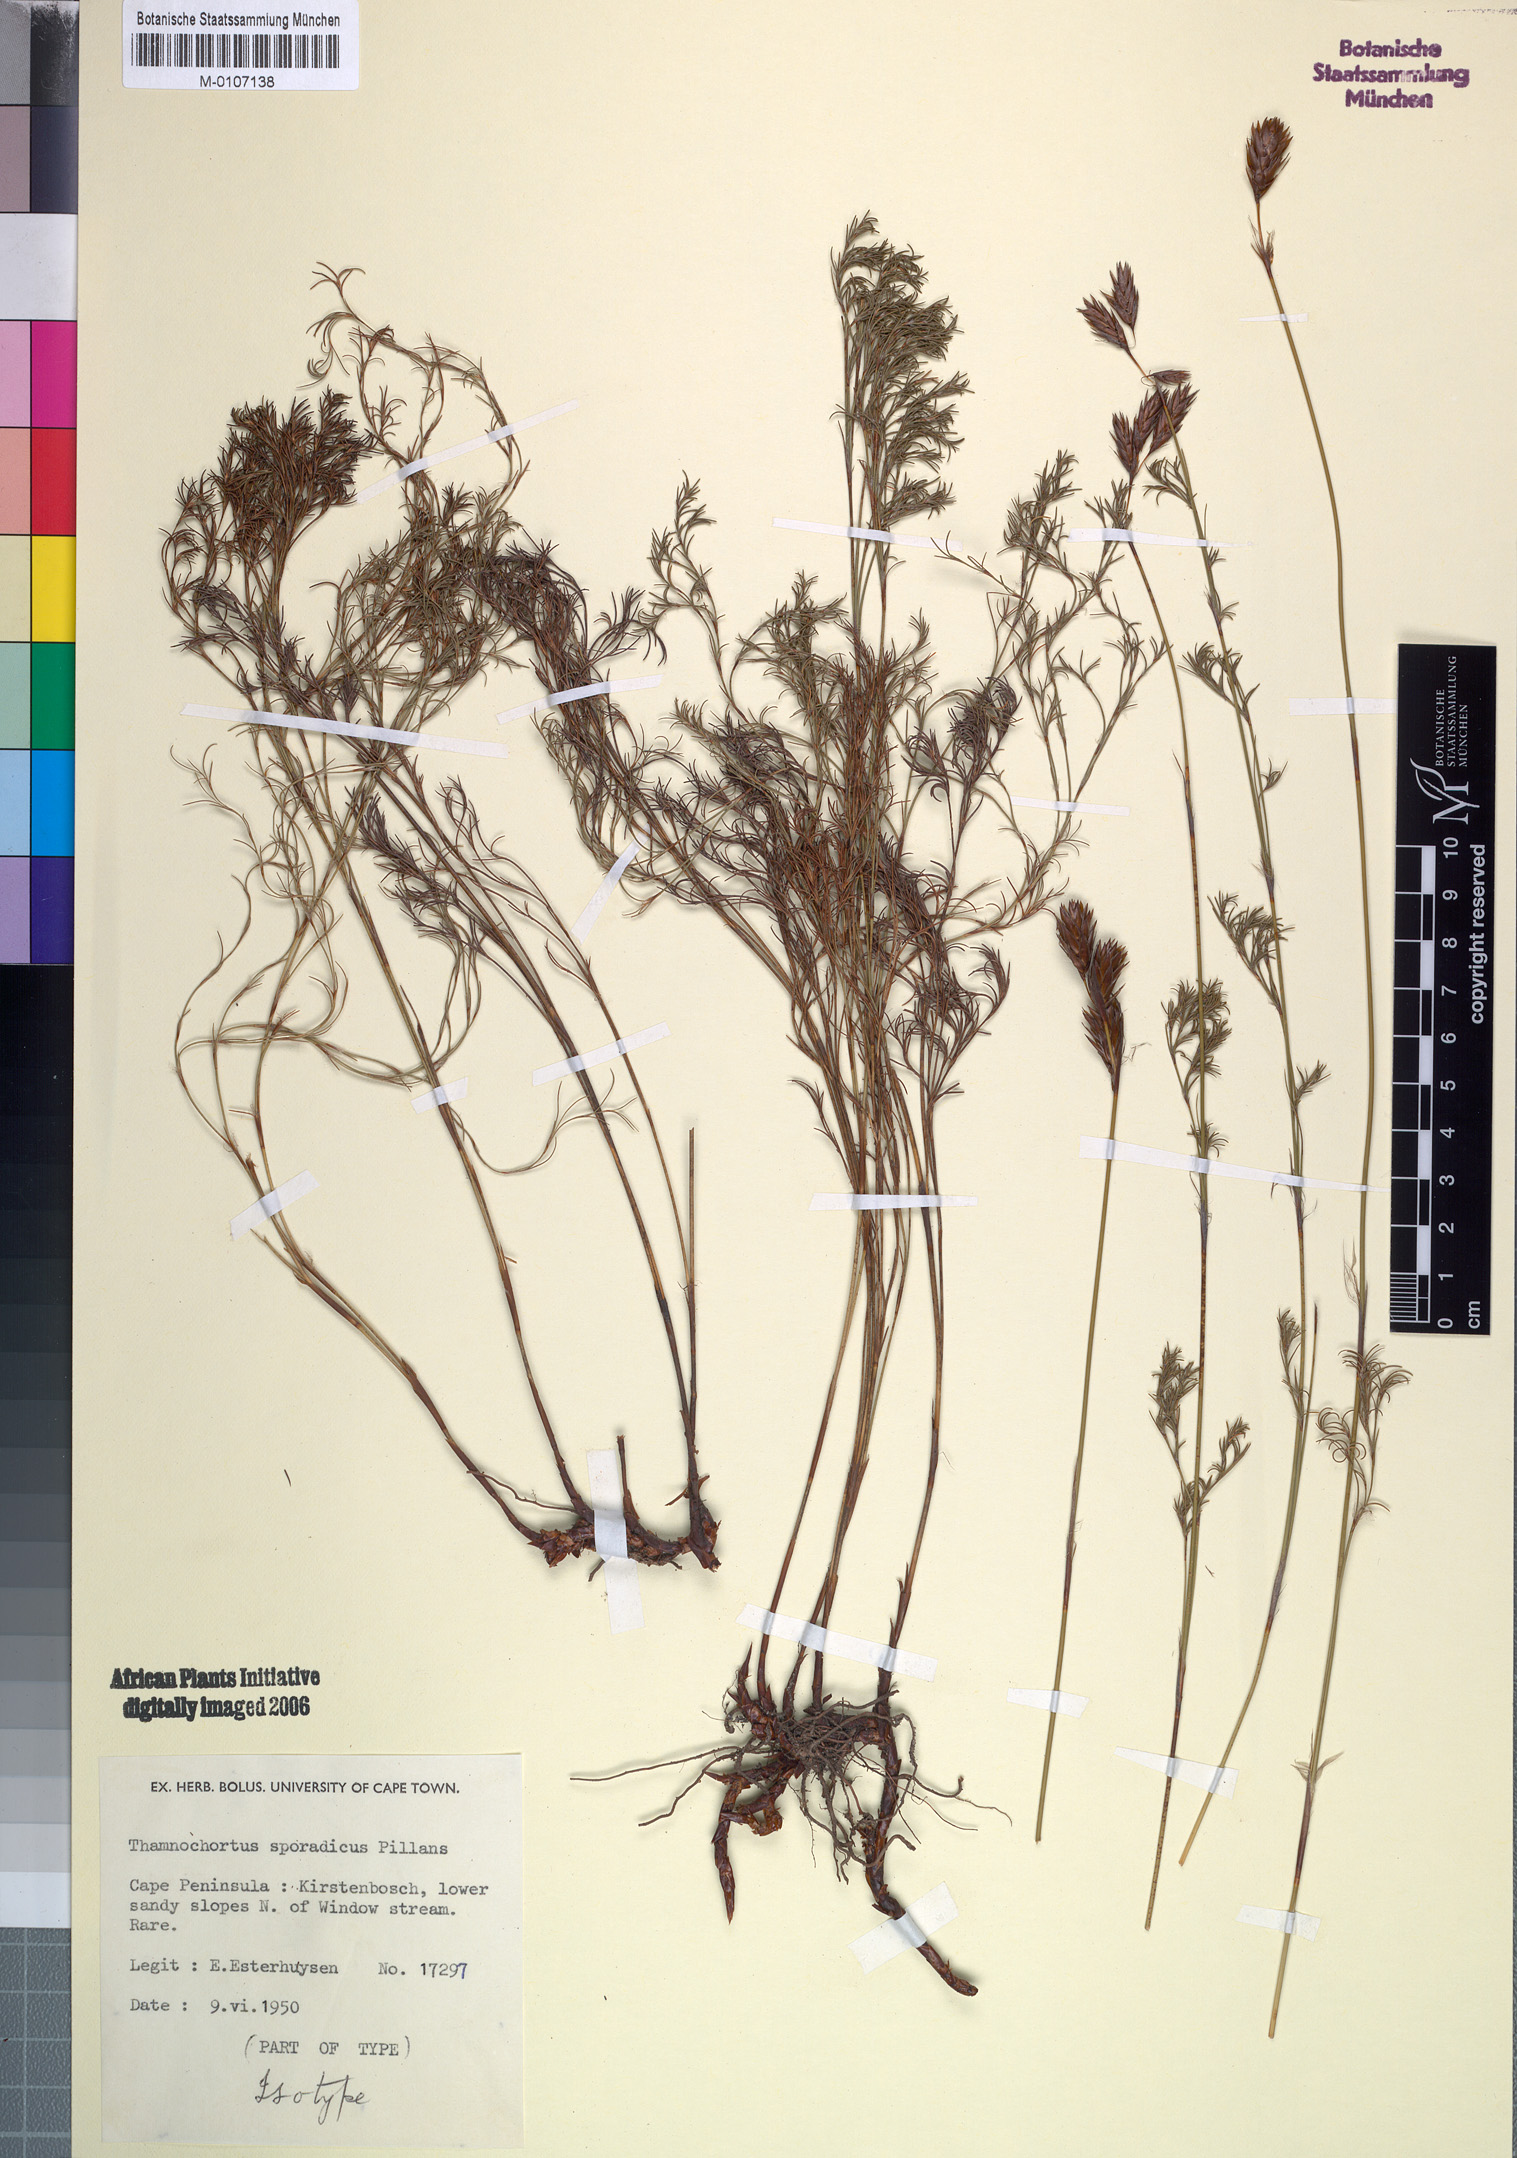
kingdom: Plantae
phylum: Tracheophyta
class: Liliopsida
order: Poales
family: Restionaceae
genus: Thamnochortus
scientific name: Thamnochortus sporadicus
